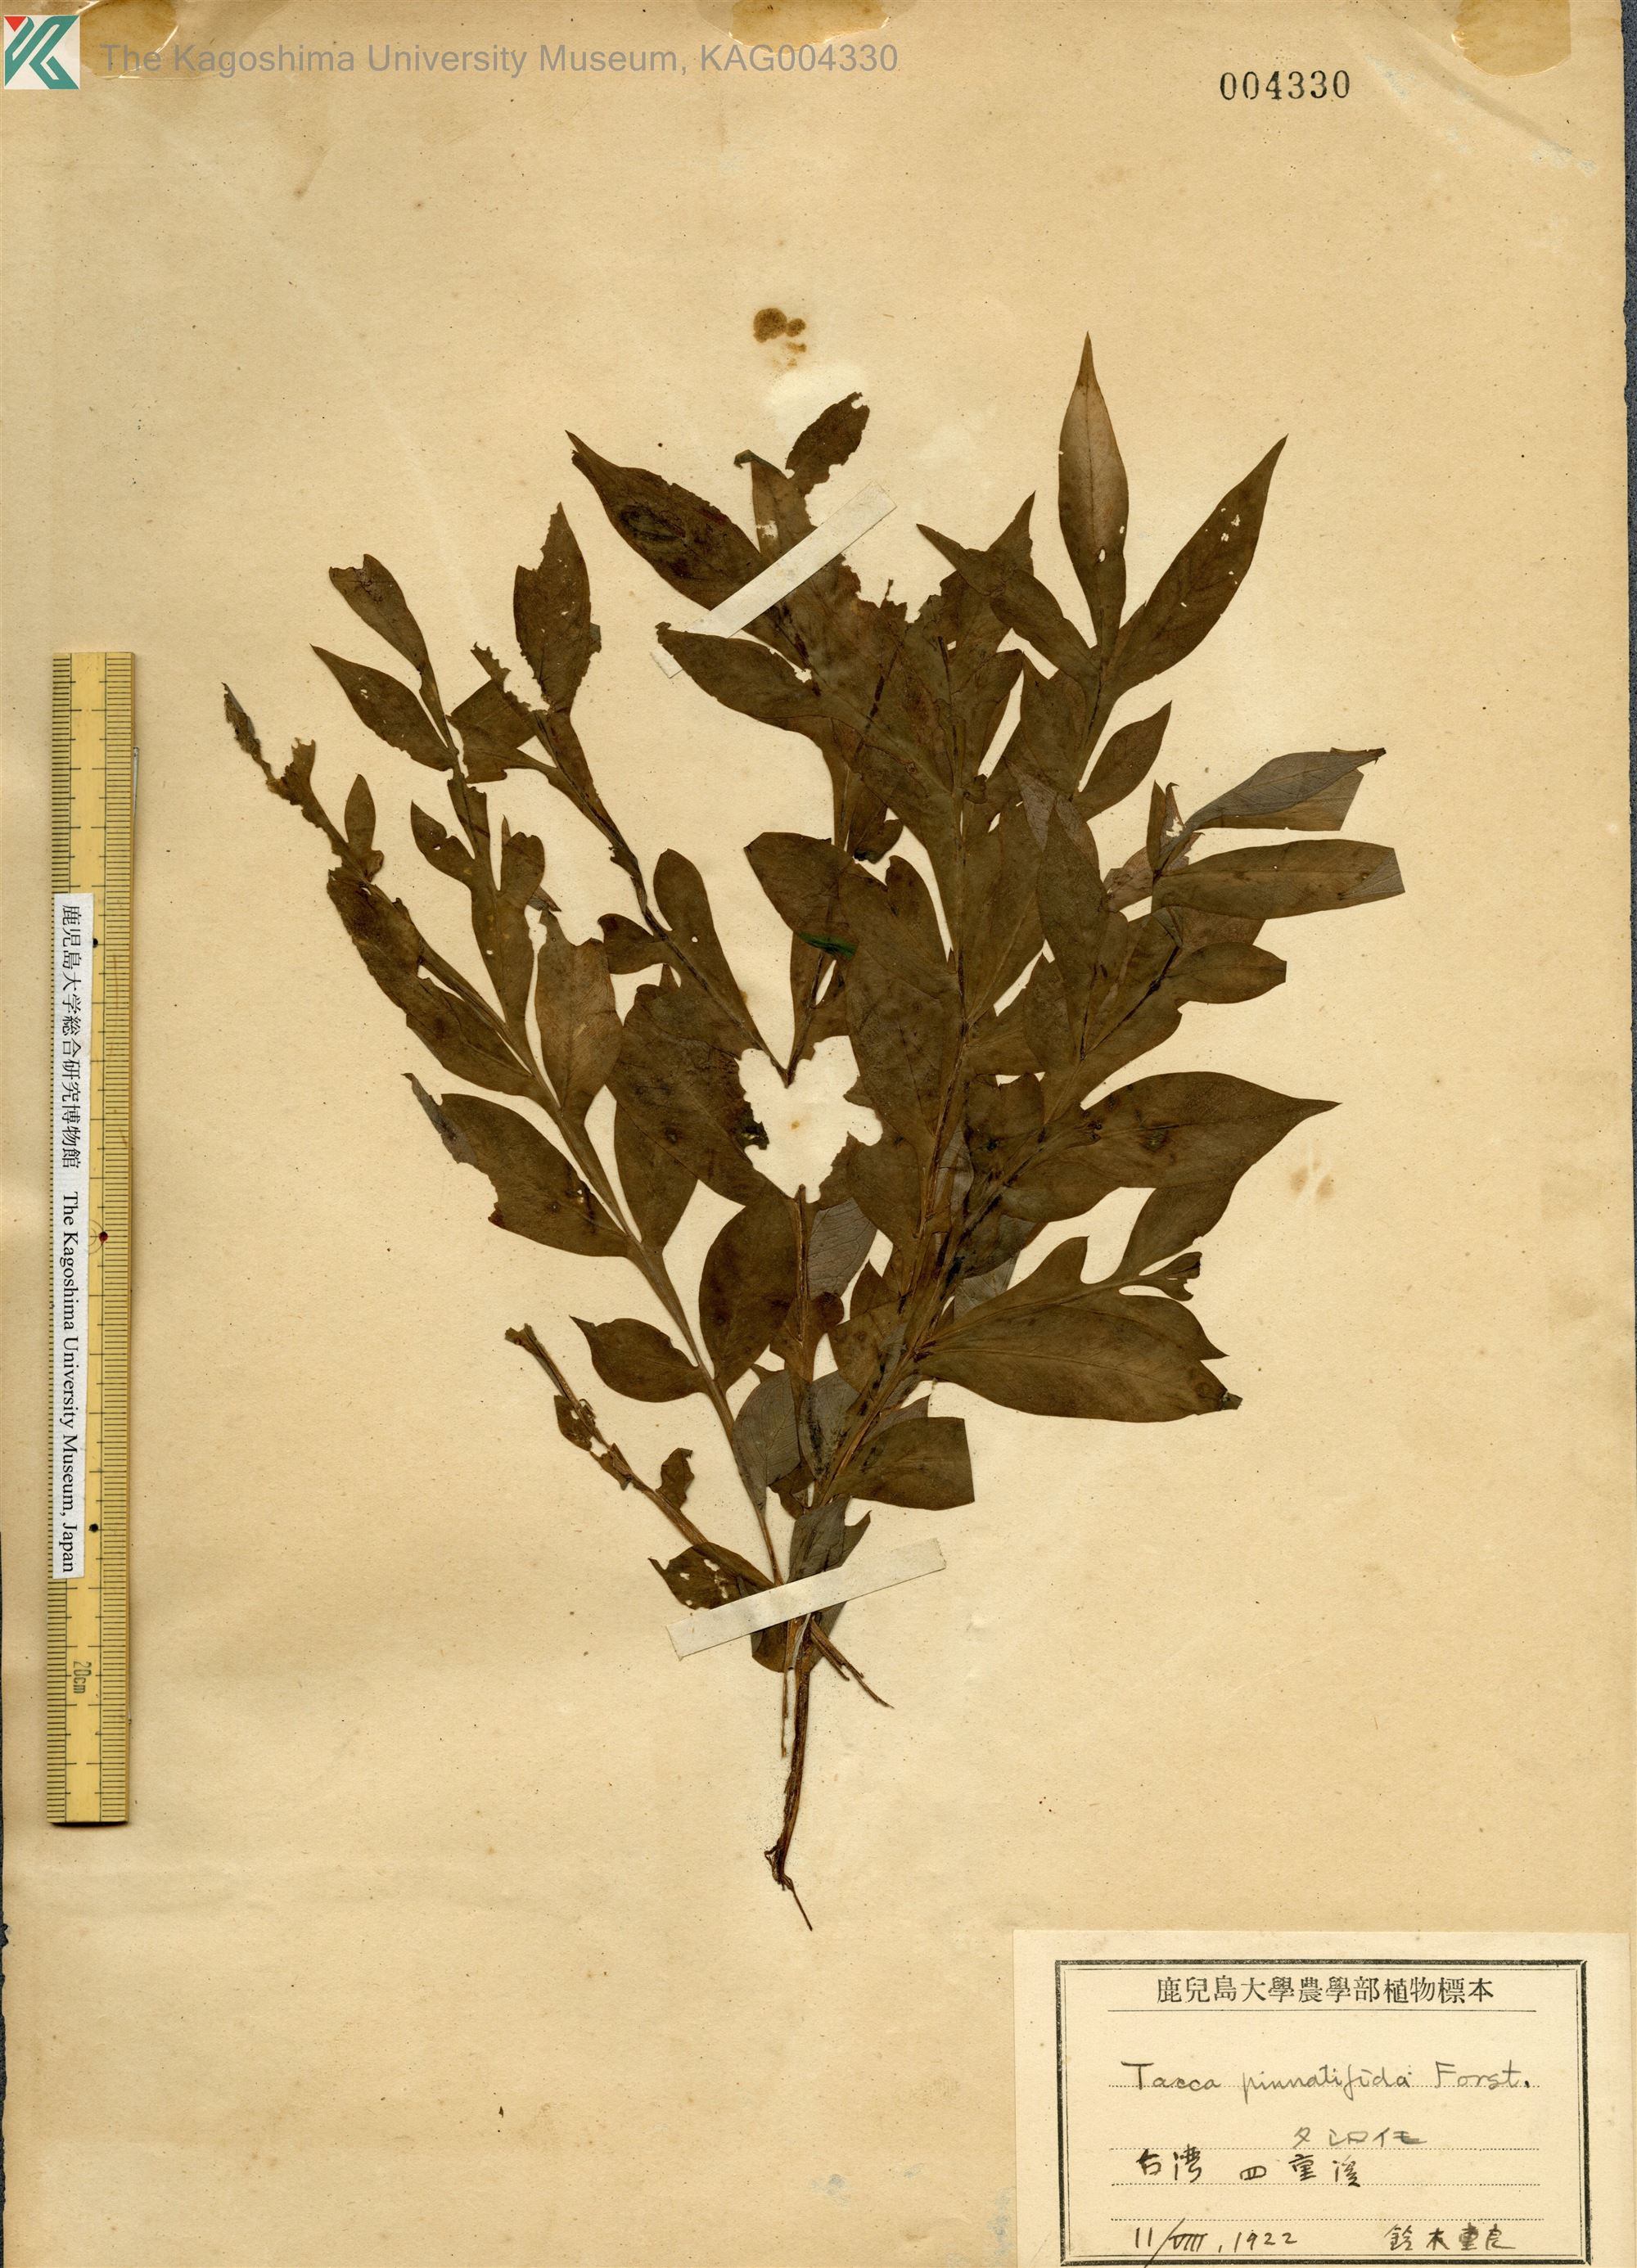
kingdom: Plantae
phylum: Tracheophyta
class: Liliopsida
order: Alismatales
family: Araceae
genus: Amorphophallus
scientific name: Amorphophallus henryi
